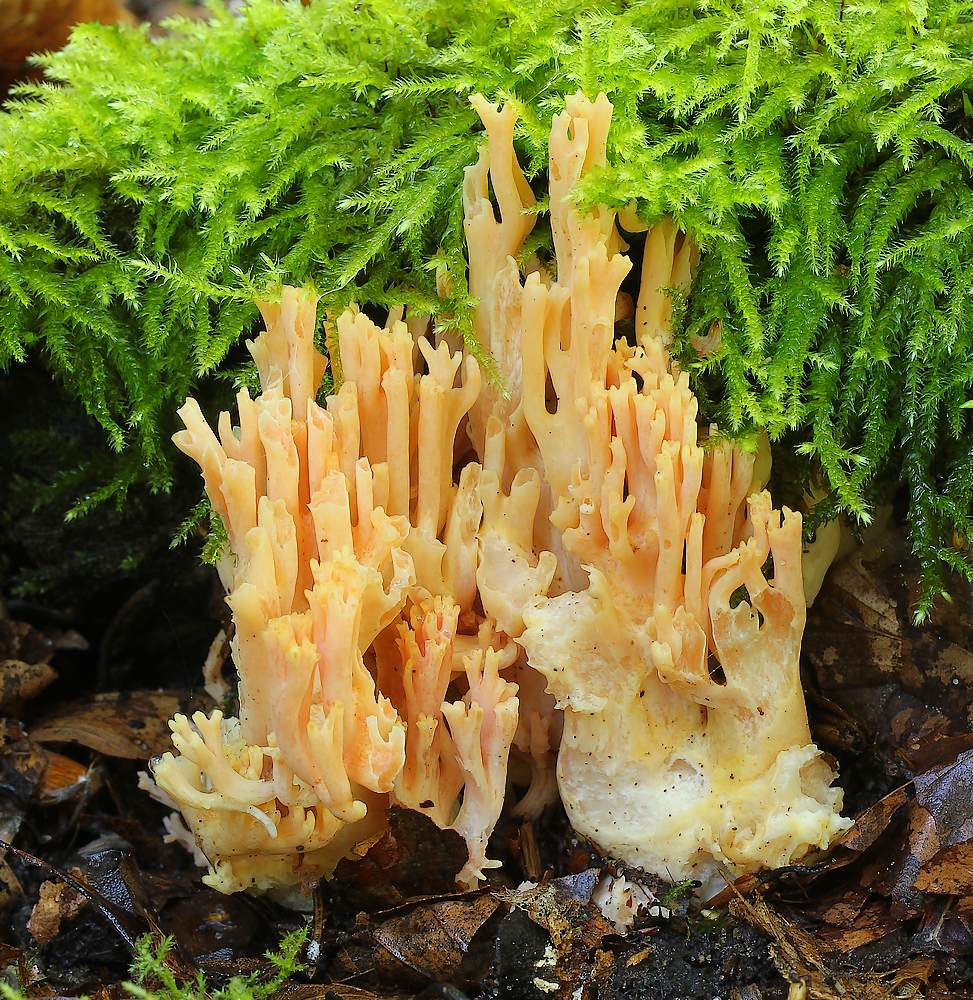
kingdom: Fungi
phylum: Basidiomycota
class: Agaricomycetes
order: Gomphales
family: Gomphaceae
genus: Ramaria
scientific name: Ramaria fagetorum
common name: abrikos-koralsvamp
